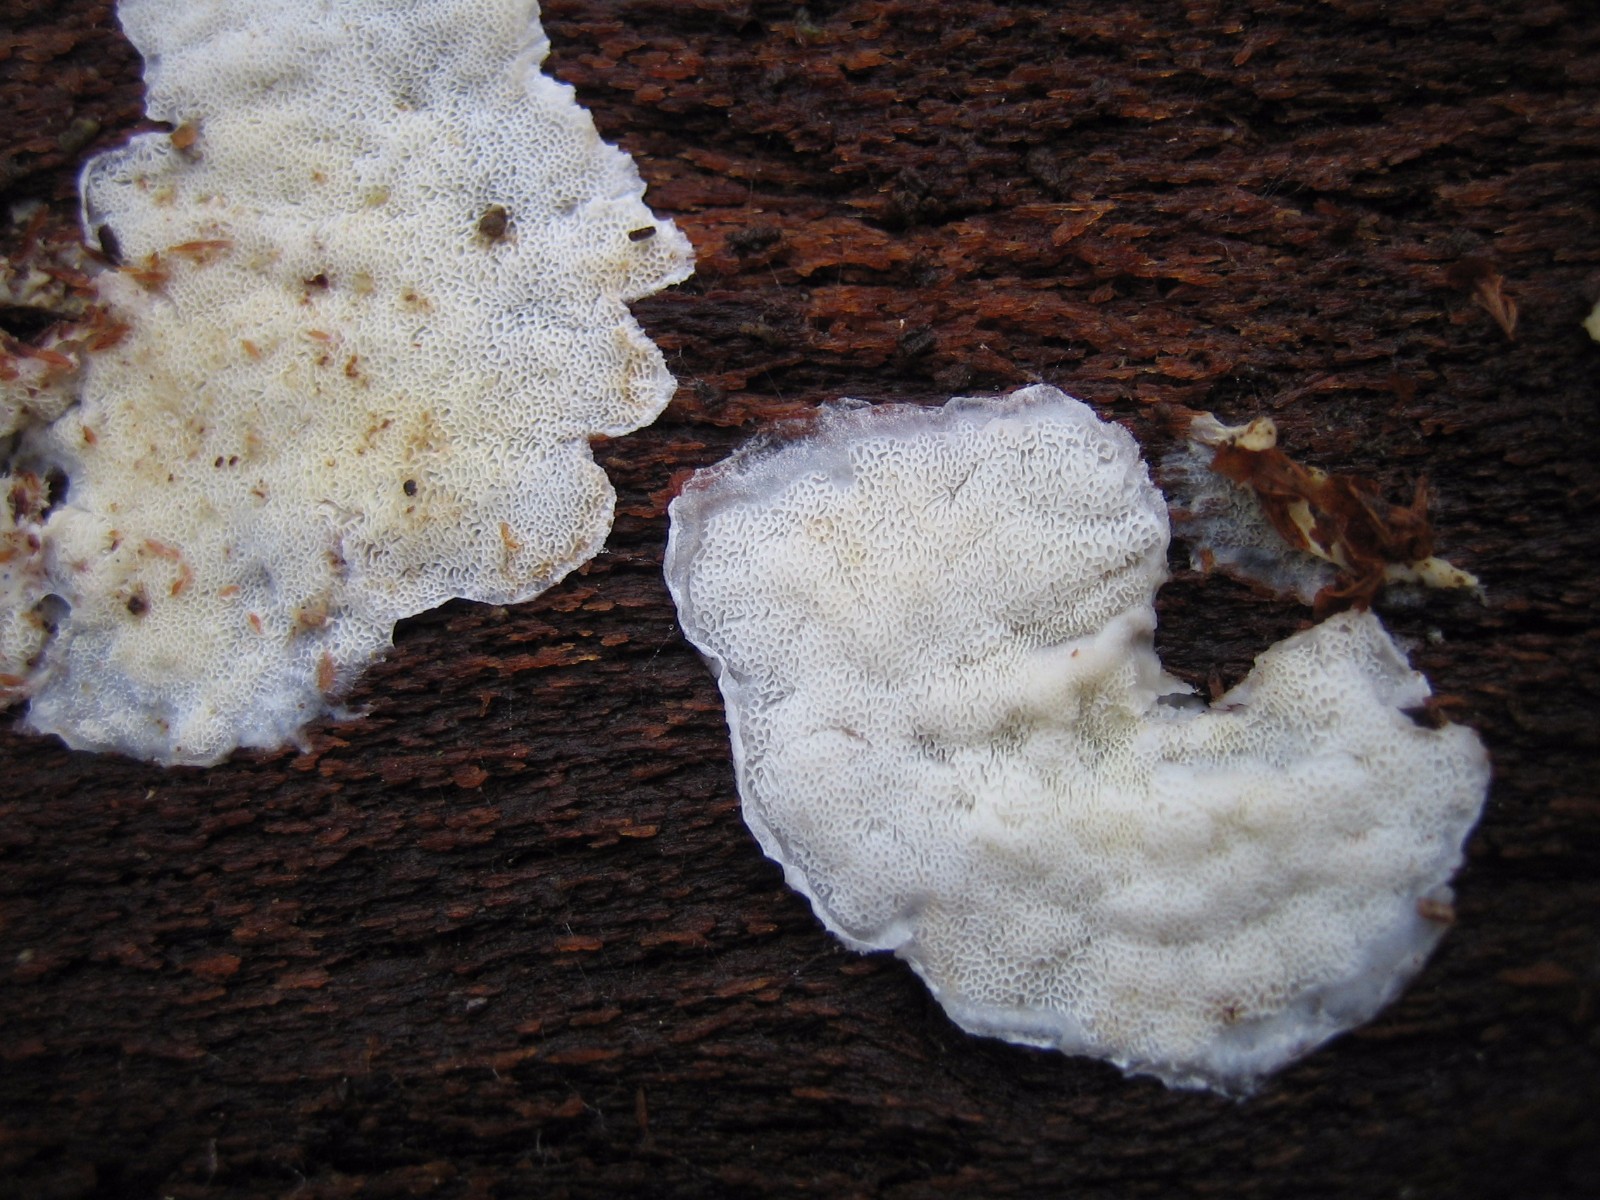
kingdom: Fungi
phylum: Basidiomycota
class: Agaricomycetes
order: Polyporales
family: Incrustoporiaceae
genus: Skeletocutis
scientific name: Skeletocutis carneogrisea
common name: rødgrå krystalporesvamp
